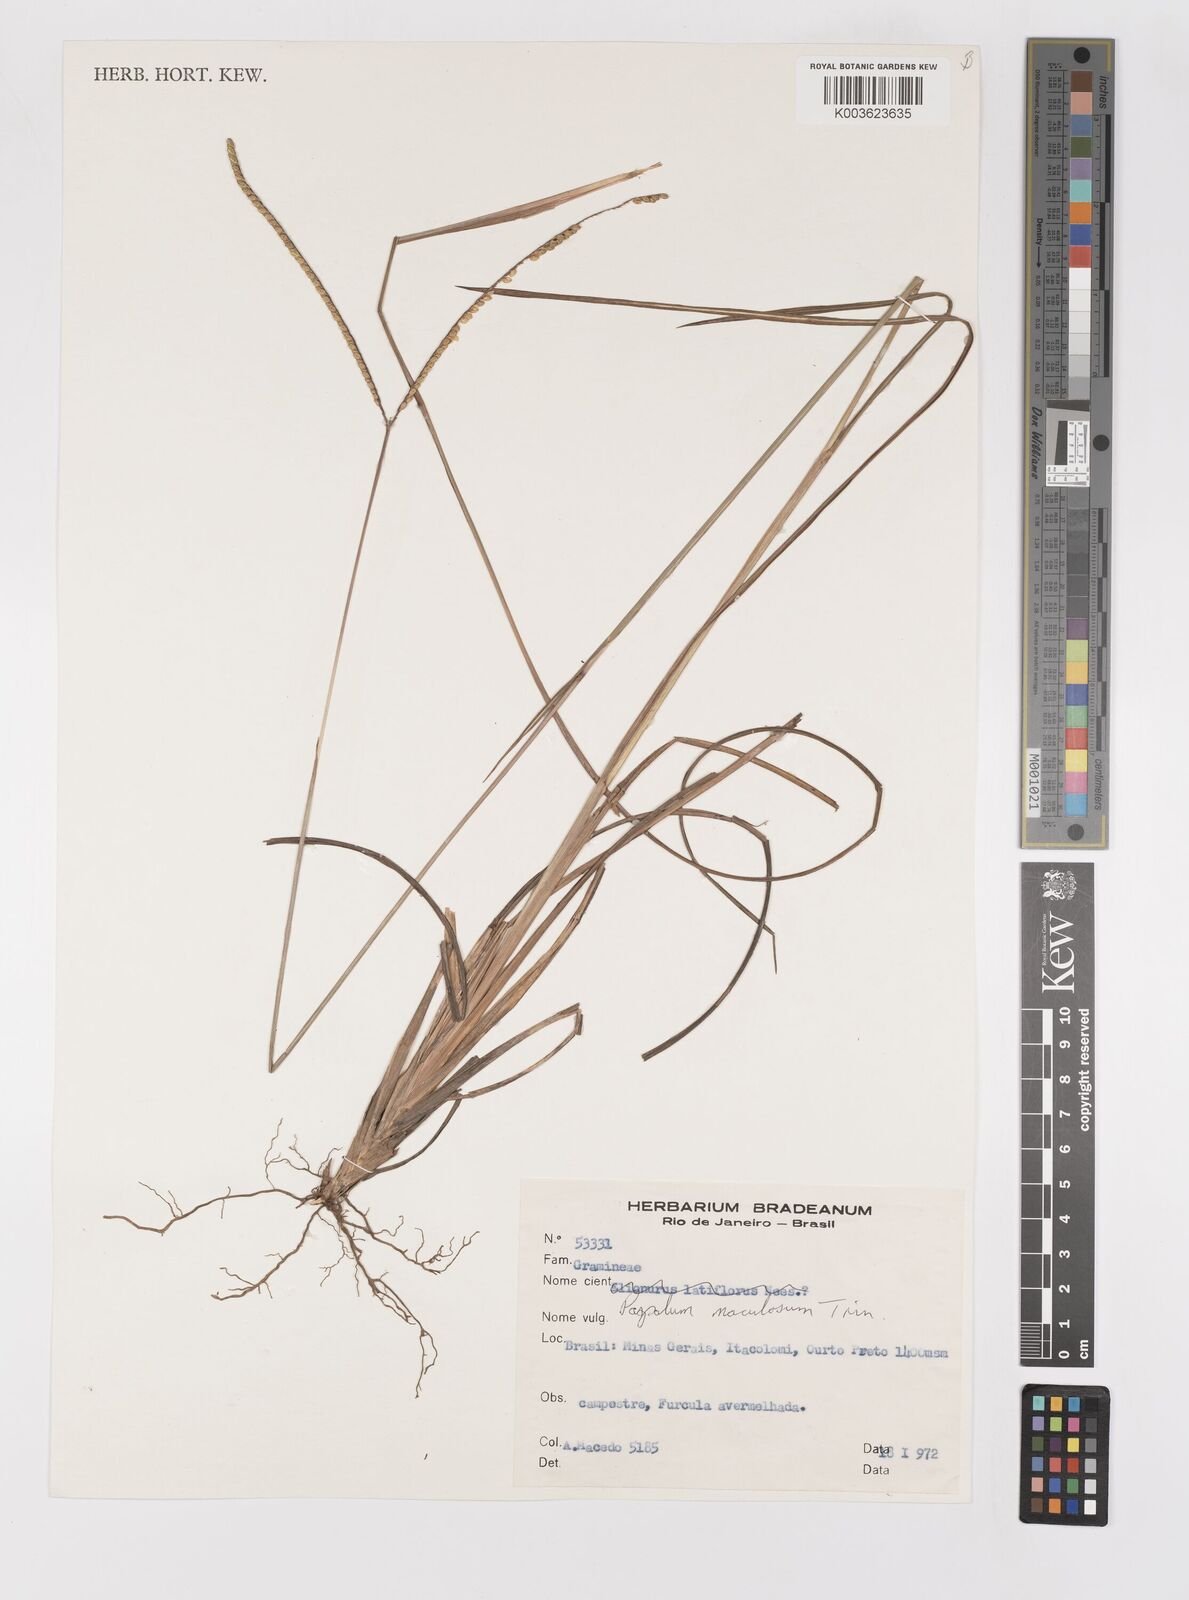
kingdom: Plantae
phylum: Tracheophyta
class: Liliopsida
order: Poales
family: Poaceae
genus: Paspalum
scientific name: Paspalum maculosum
